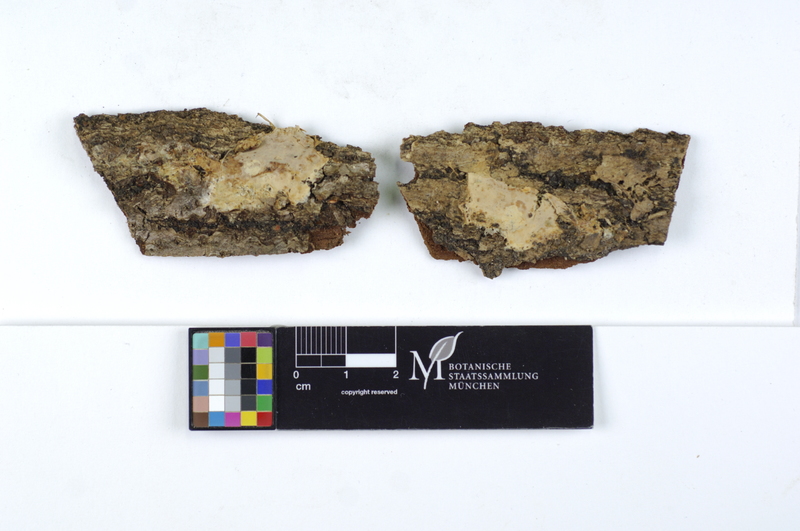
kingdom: Fungi
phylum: Basidiomycota
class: Agaricomycetes
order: Polyporales
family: Phanerochaetaceae
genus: Rhizochaete
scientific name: Rhizochaete violascens
